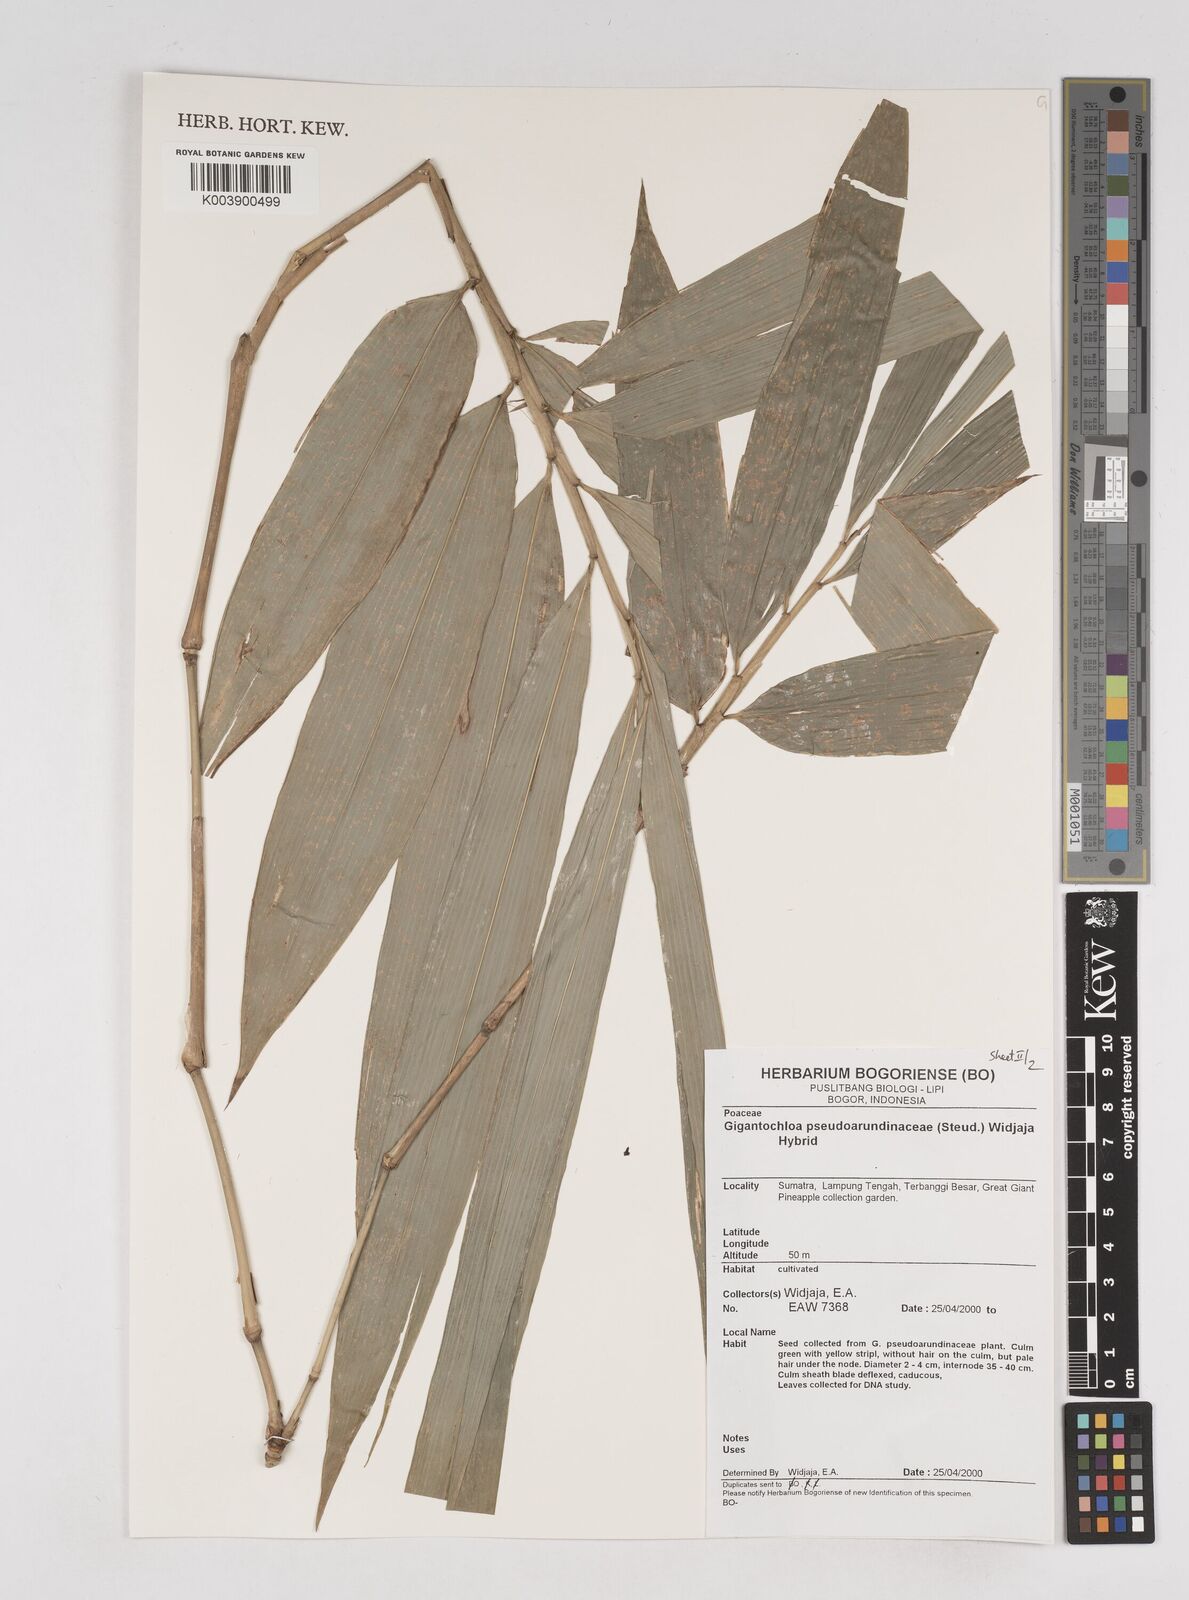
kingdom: Plantae
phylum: Tracheophyta
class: Liliopsida
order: Poales
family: Poaceae
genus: Gigantochloa
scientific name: Gigantochloa verticillata
